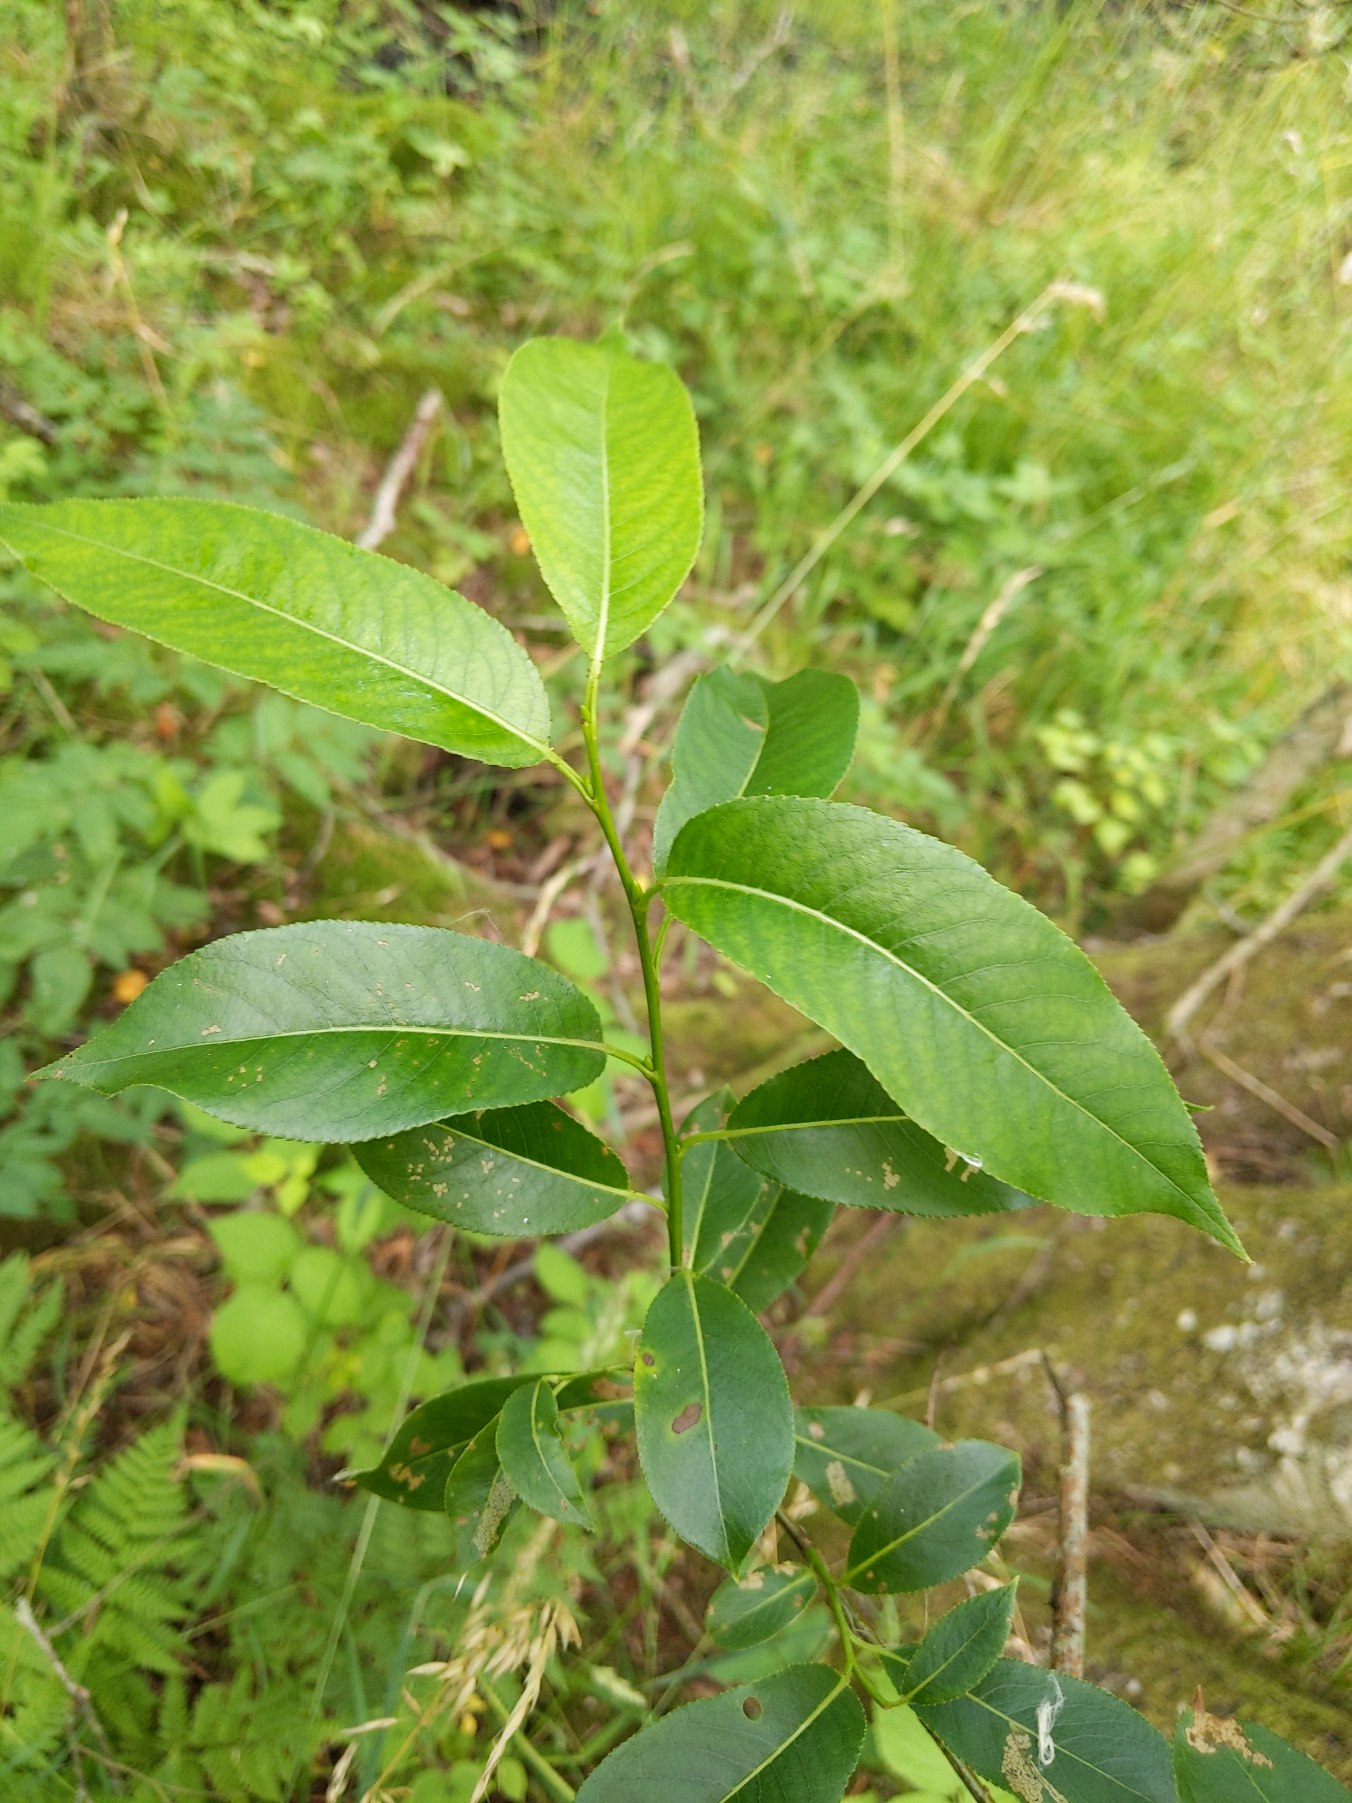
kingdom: Plantae
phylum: Tracheophyta
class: Magnoliopsida
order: Malpighiales
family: Salicaceae
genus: Salix
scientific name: Salix pentandra
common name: Femhannet pil
